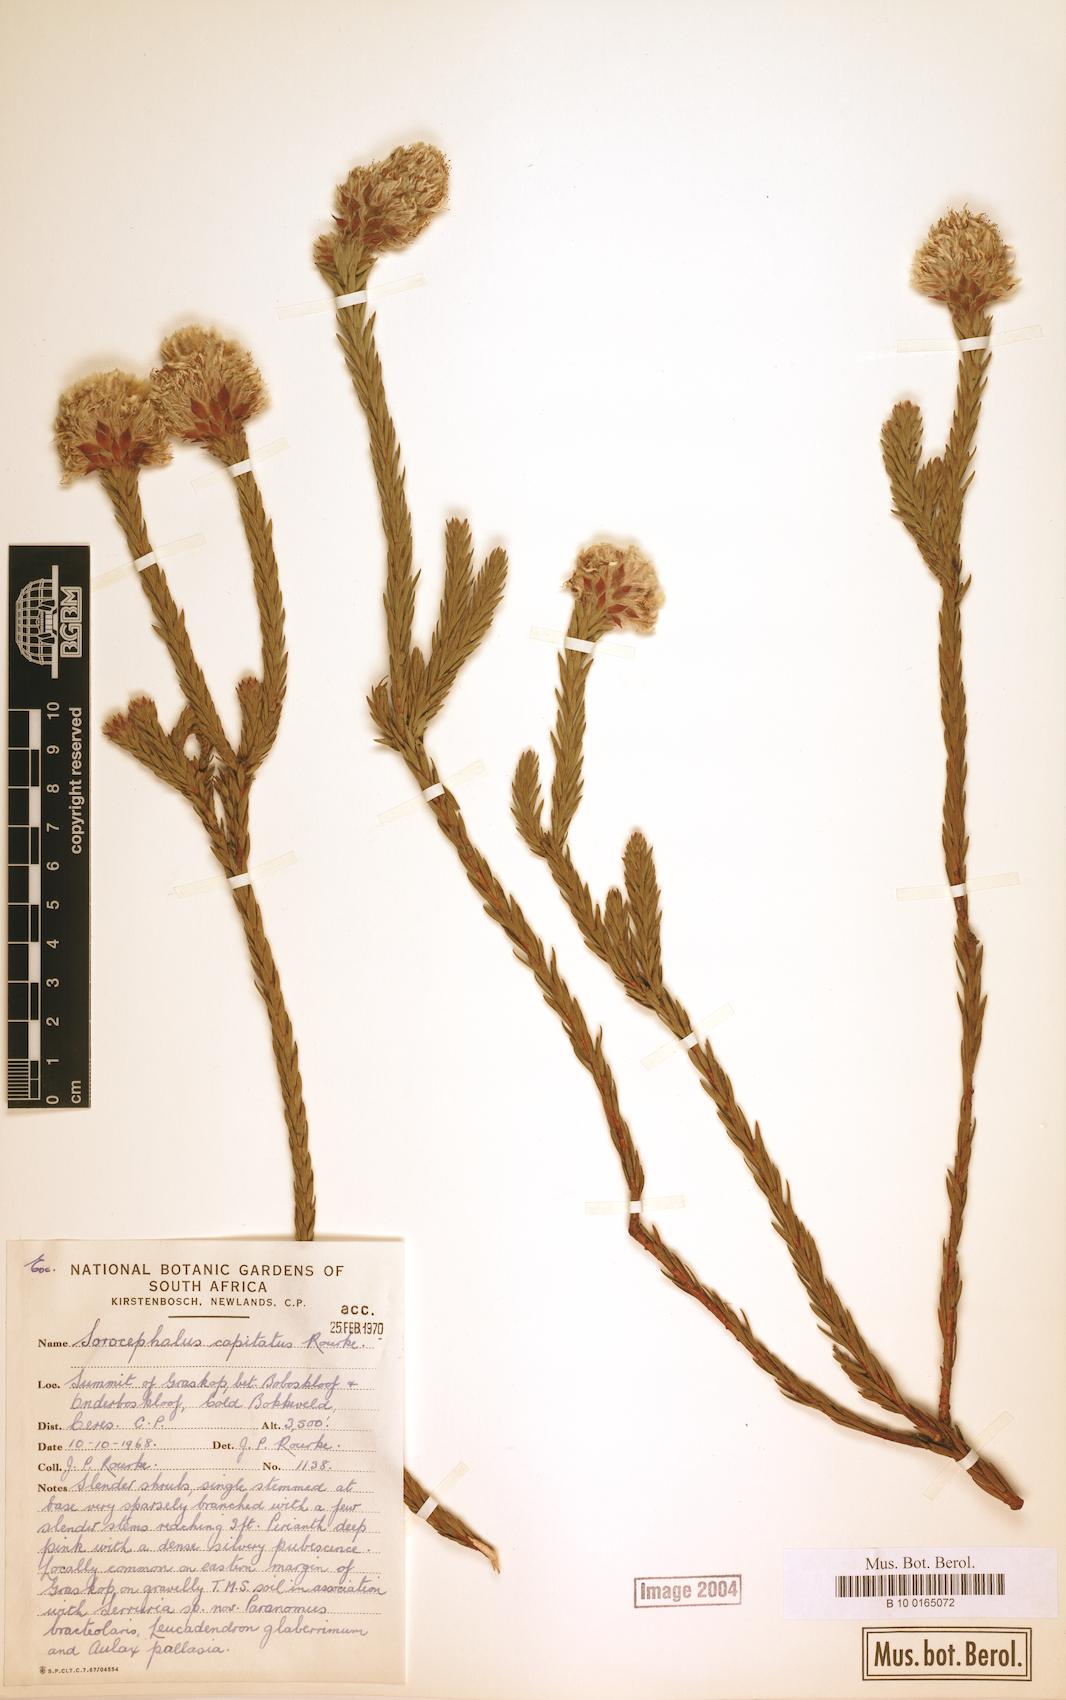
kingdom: Plantae
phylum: Tracheophyta
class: Magnoliopsida
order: Proteales
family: Proteaceae
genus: Sorocephalus
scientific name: Sorocephalus capitatus
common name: Woolly clusterhead
